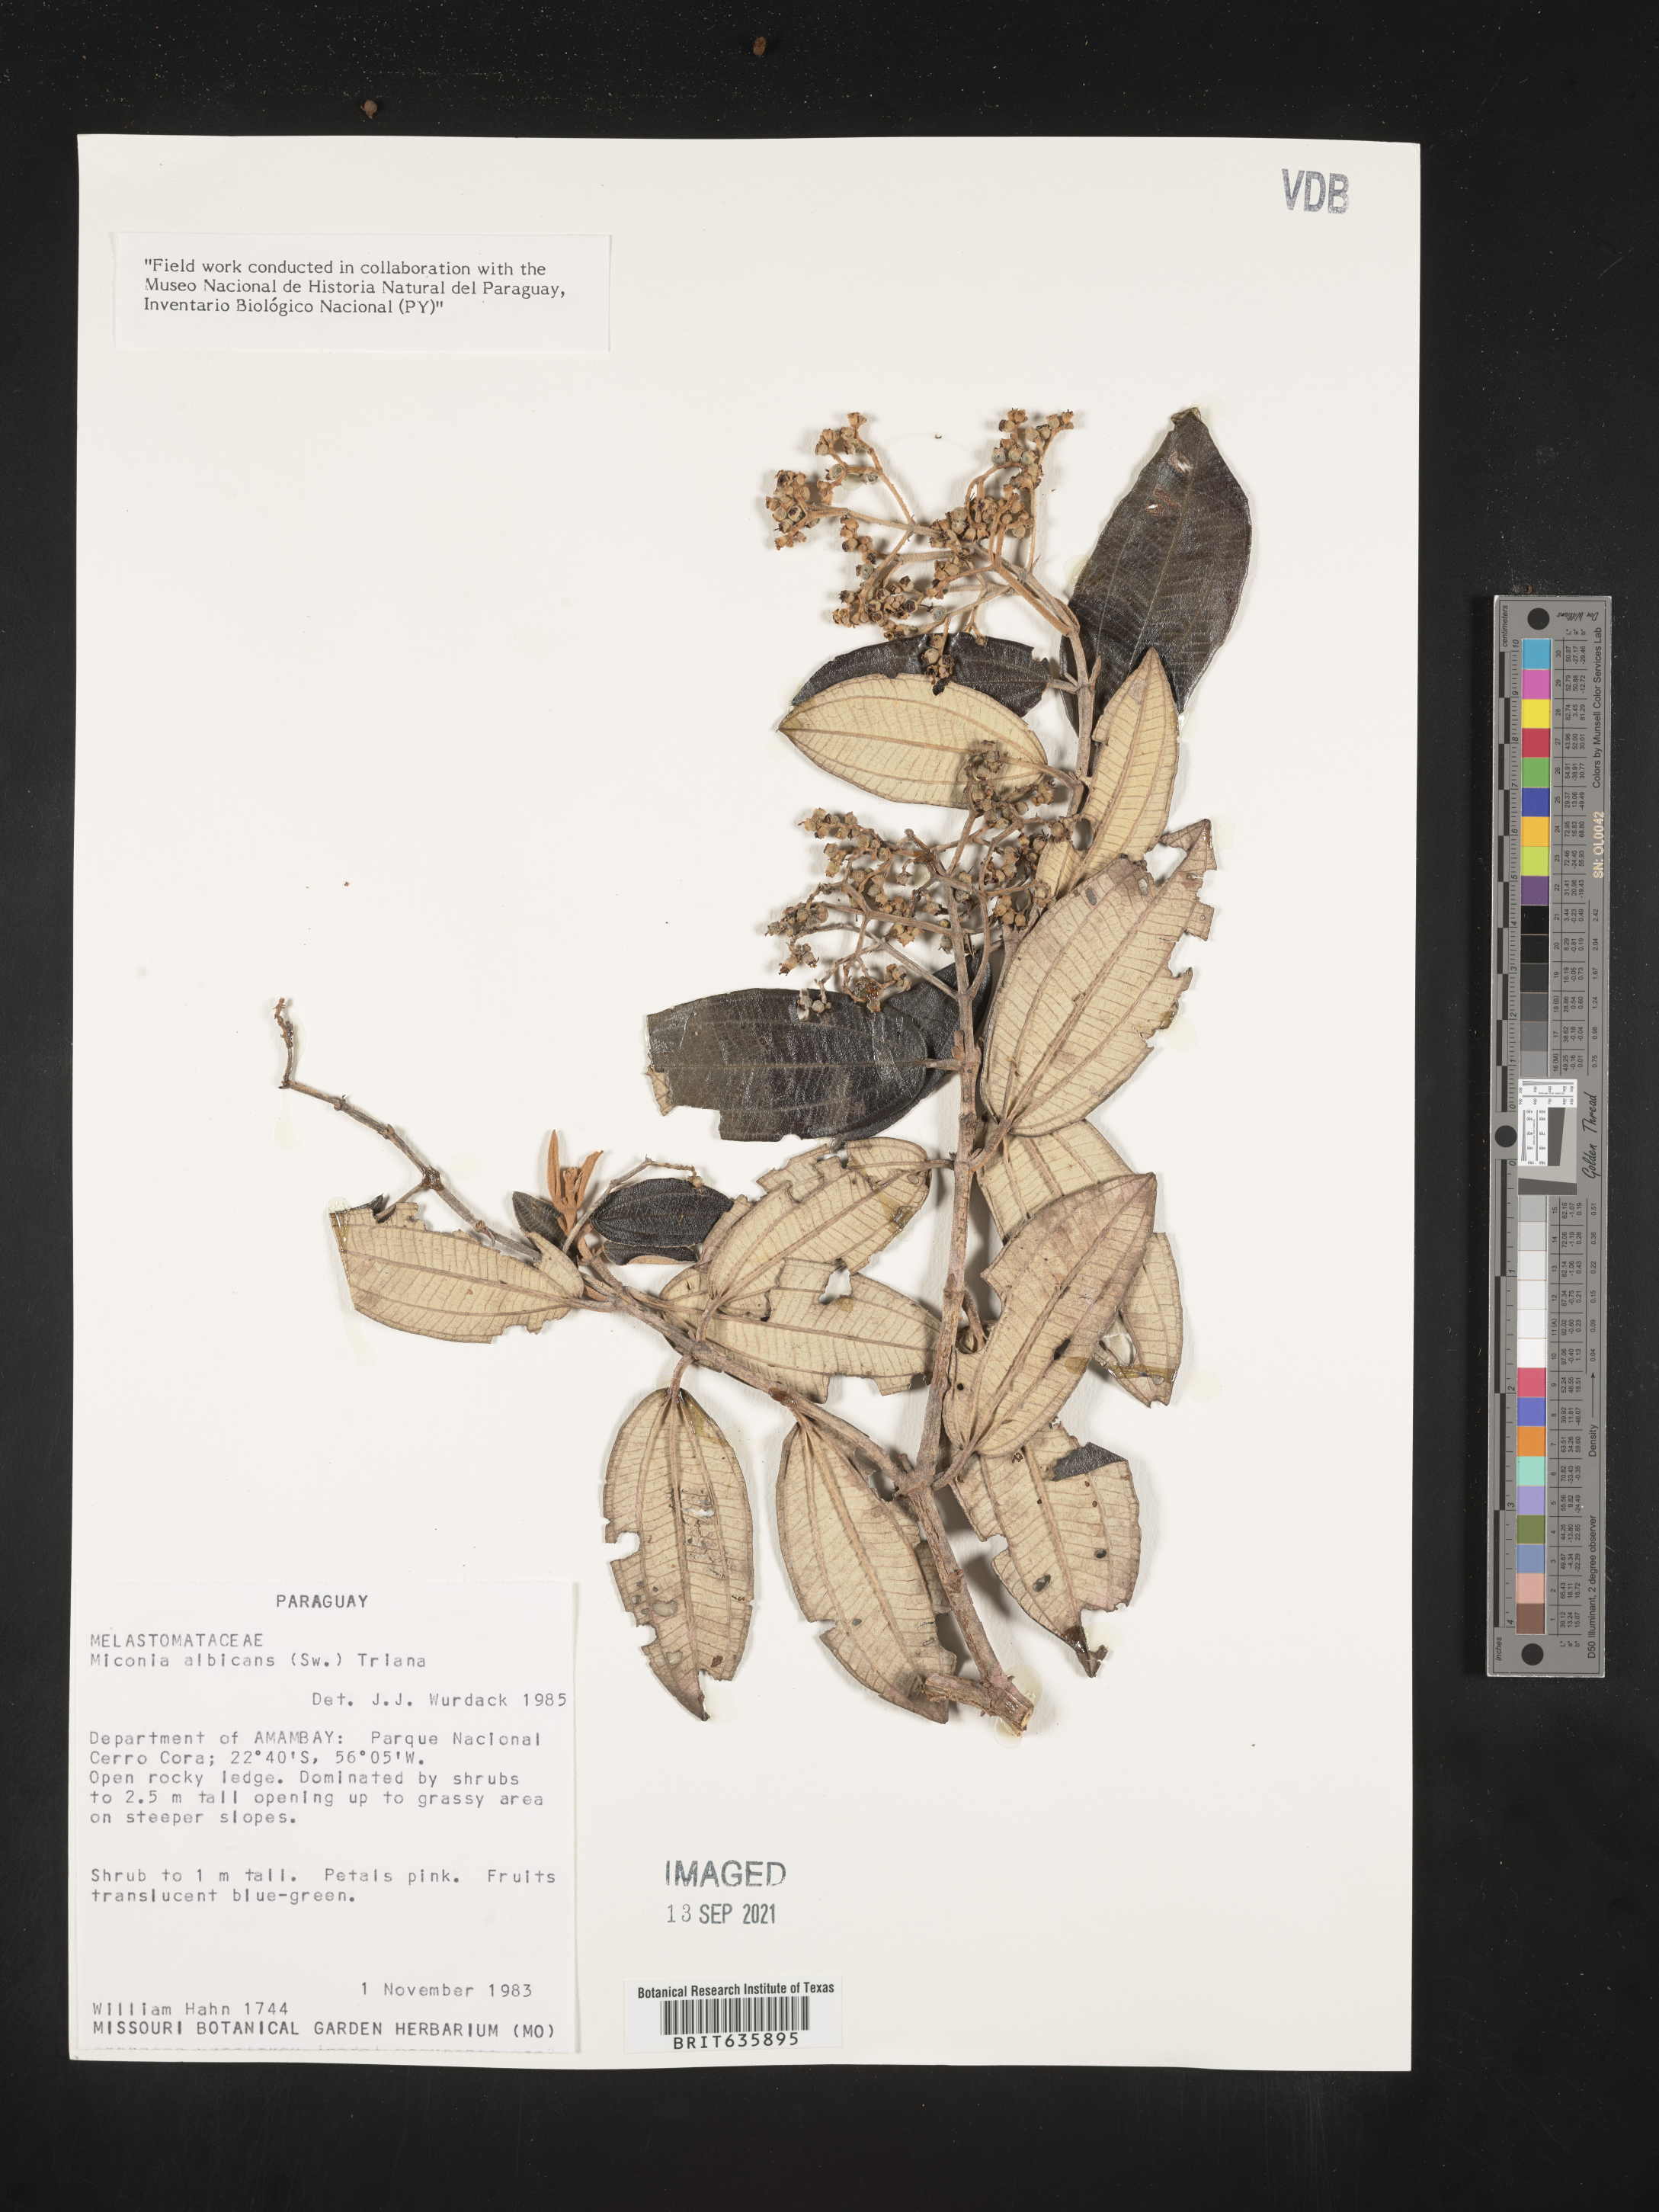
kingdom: Plantae
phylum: Tracheophyta
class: Magnoliopsida
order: Myrtales
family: Melastomataceae
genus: Miconia
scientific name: Miconia
